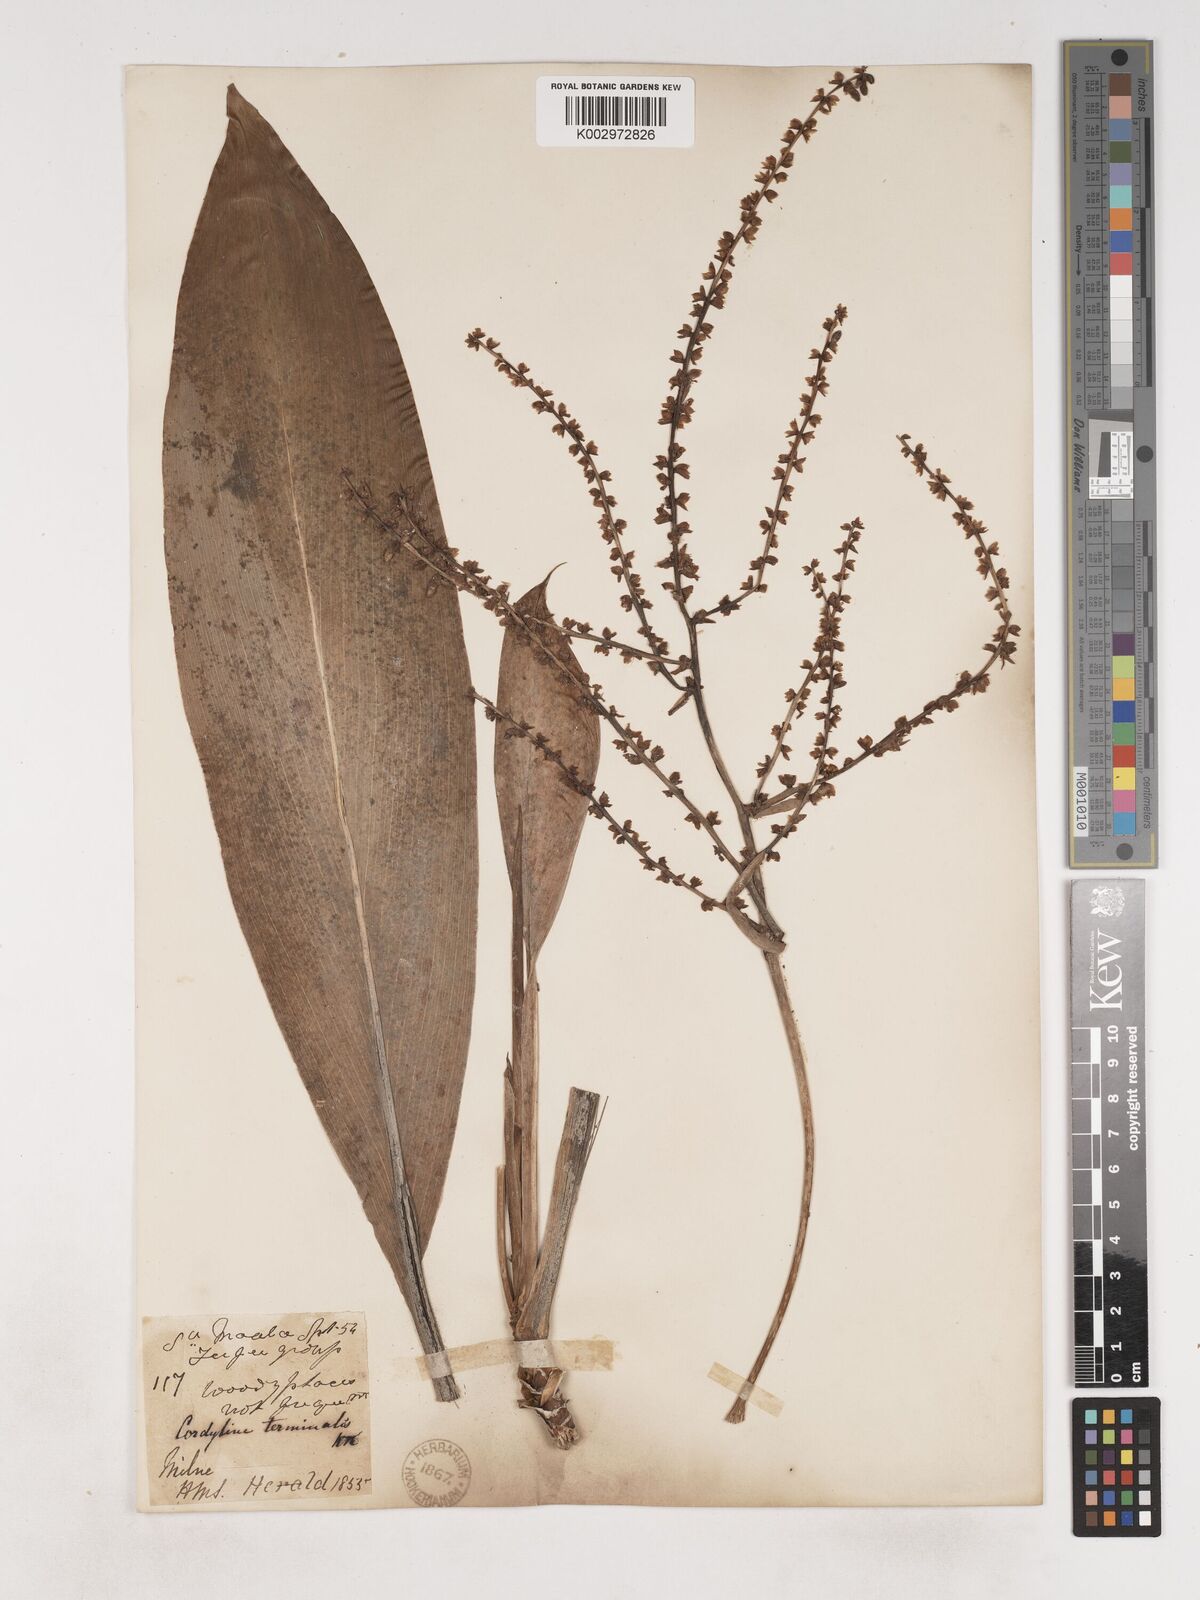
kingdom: Plantae
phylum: Tracheophyta
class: Liliopsida
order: Asparagales
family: Asparagaceae
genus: Cordyline
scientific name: Cordyline fruticosa
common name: Good-luck-plant
